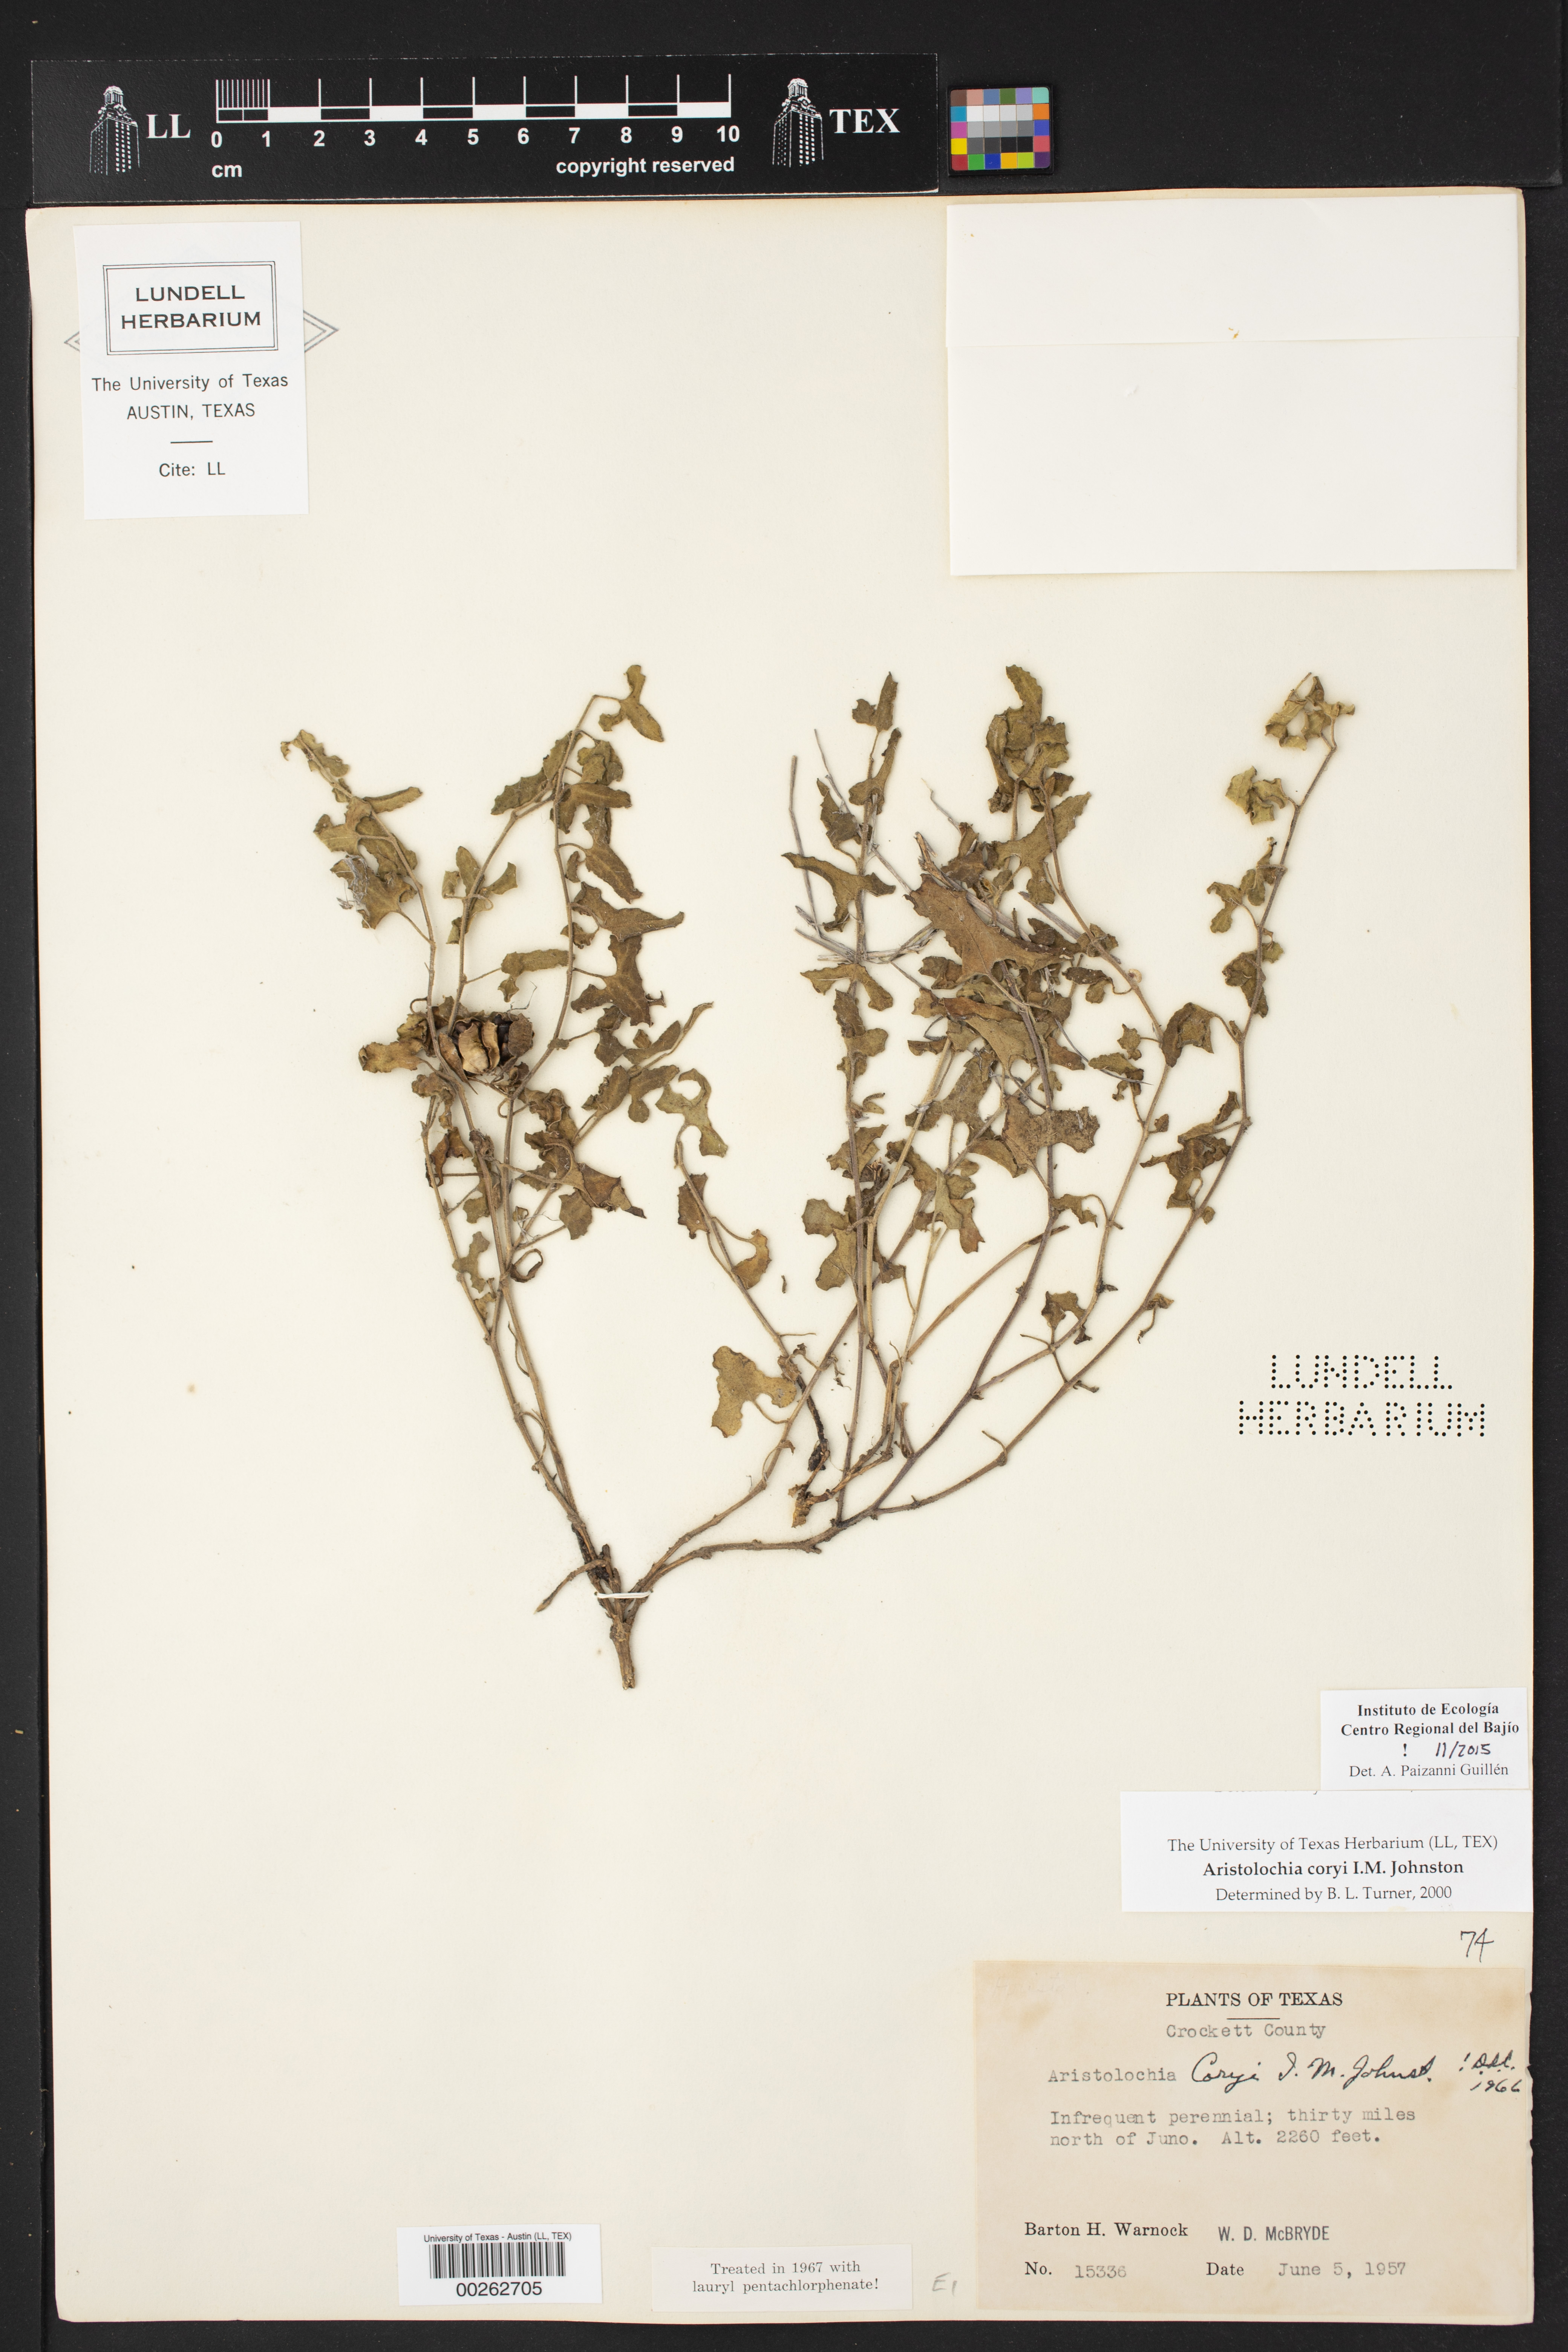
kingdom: Plantae
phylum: Tracheophyta
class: Magnoliopsida
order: Piperales
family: Aristolochiaceae
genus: Aristolochia
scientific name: Aristolochia coryi
